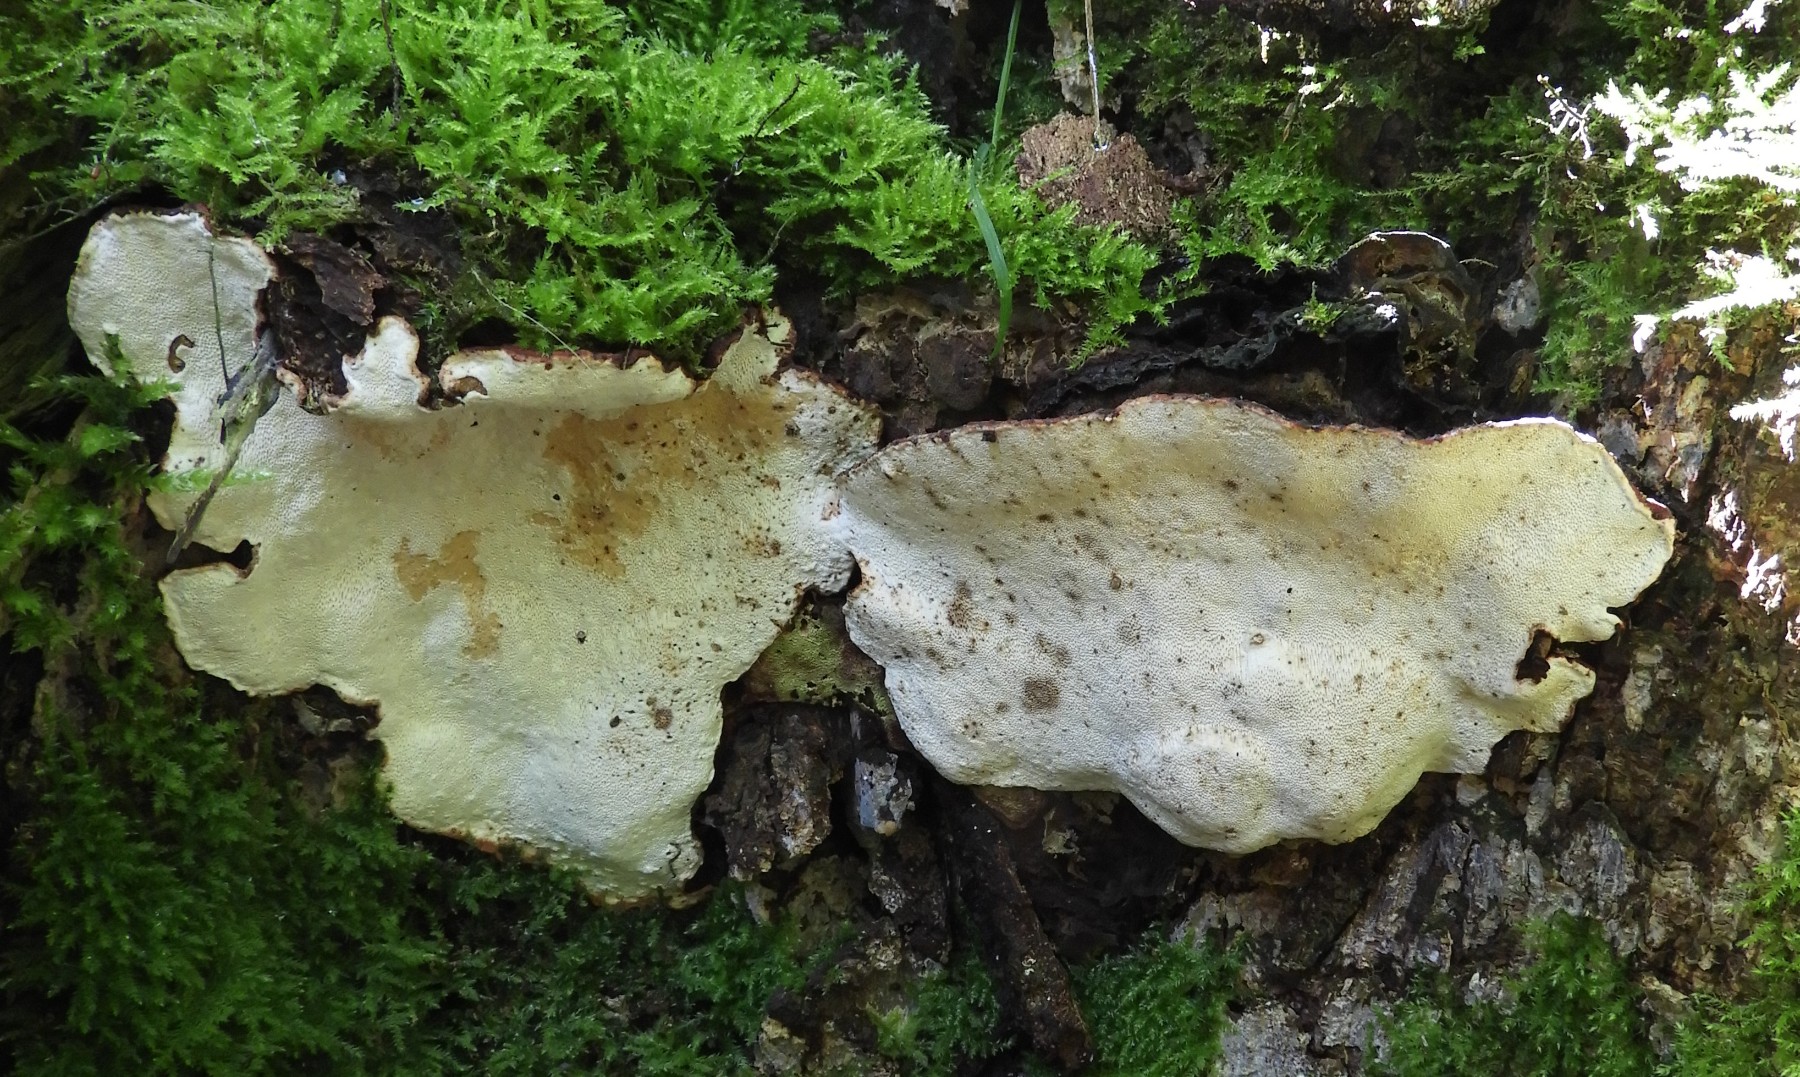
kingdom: Fungi
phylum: Basidiomycota
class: Agaricomycetes
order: Russulales
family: Bondarzewiaceae
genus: Heterobasidion
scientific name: Heterobasidion annosum
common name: almindelig rodfordærver
